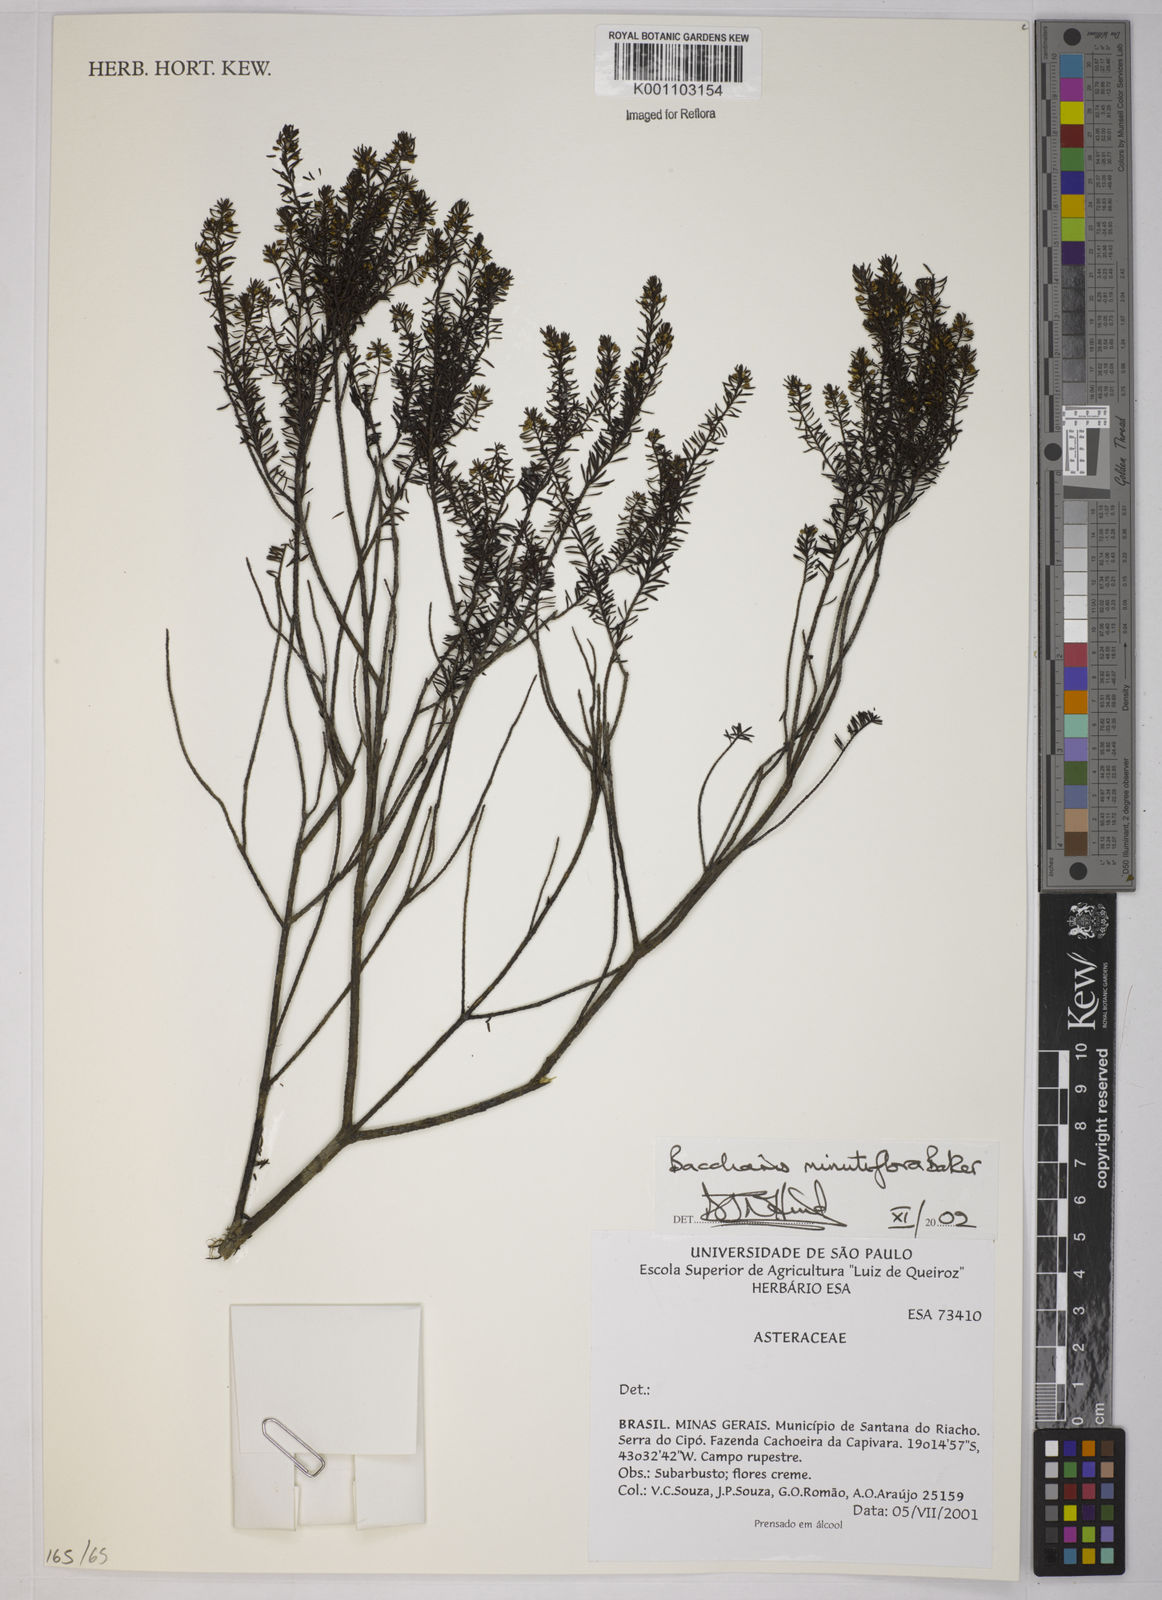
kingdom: Plantae
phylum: Tracheophyta
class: Magnoliopsida
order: Asterales
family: Asteraceae
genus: Baccharis
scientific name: Baccharis minutiflora
